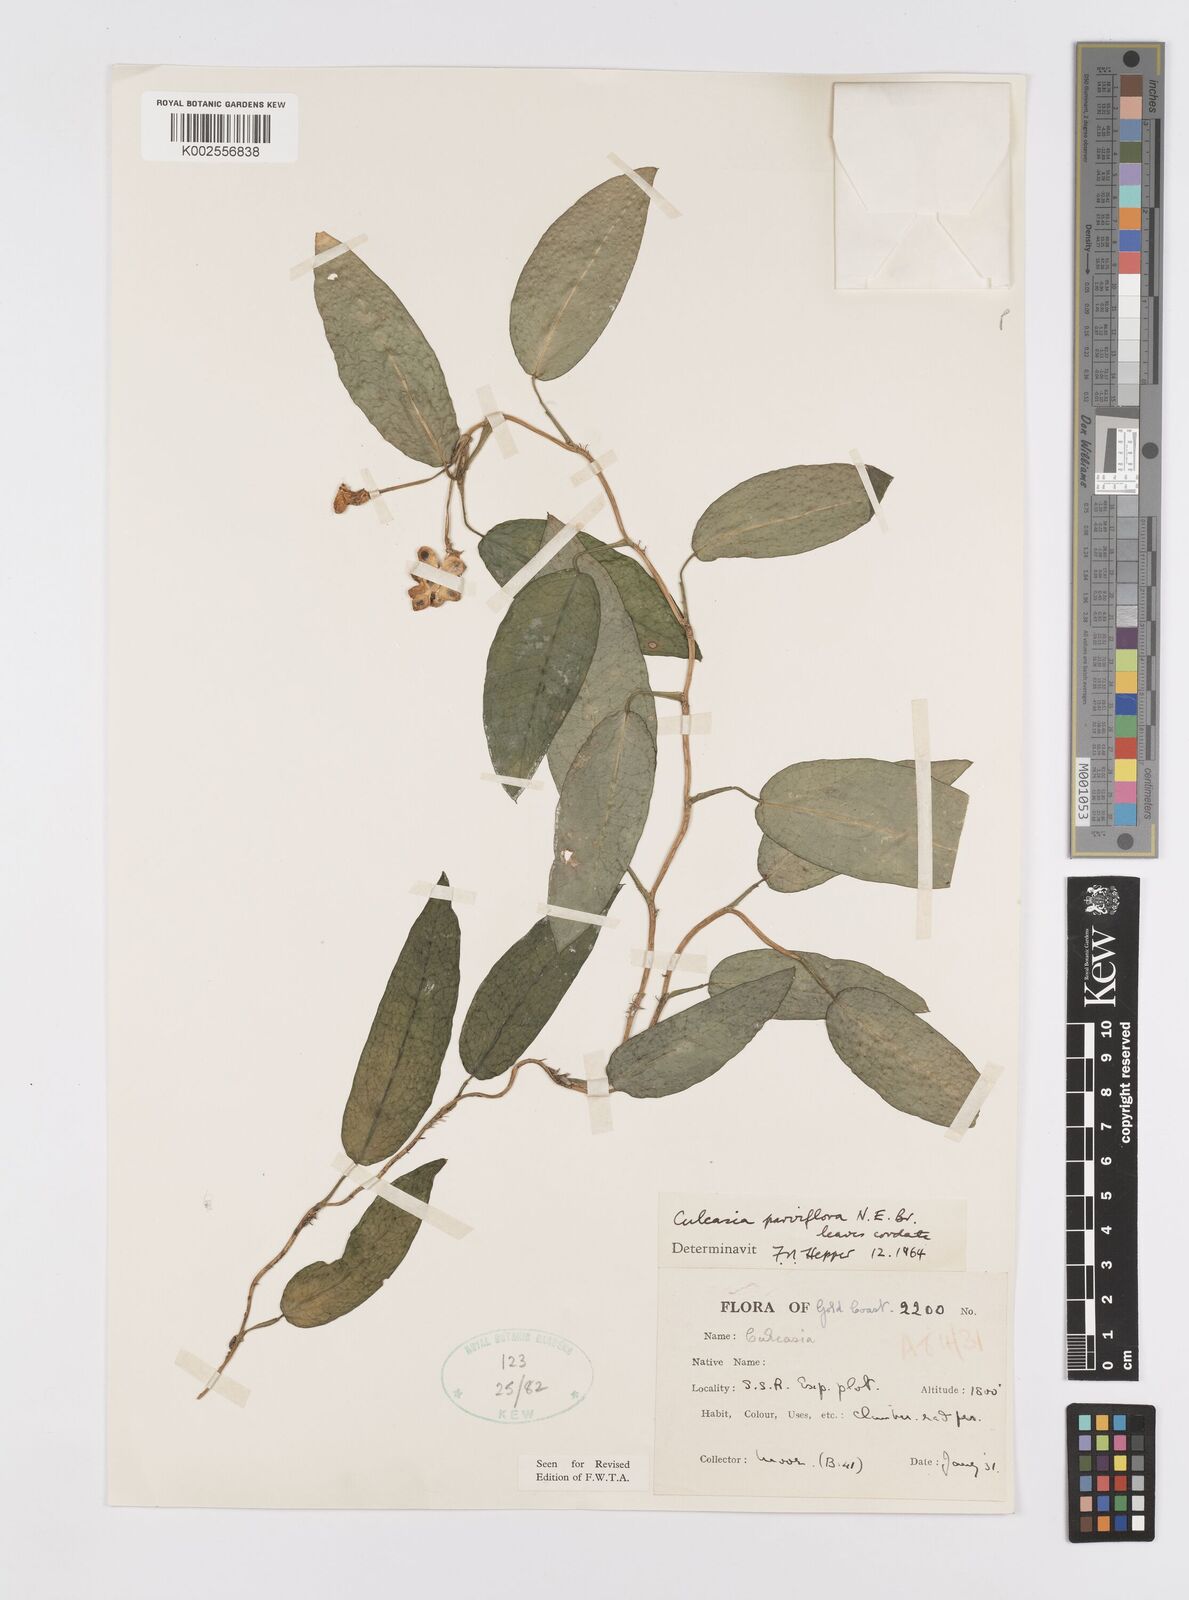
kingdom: Plantae
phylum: Tracheophyta
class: Liliopsida
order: Alismatales
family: Araceae
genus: Culcasia
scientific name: Culcasia
